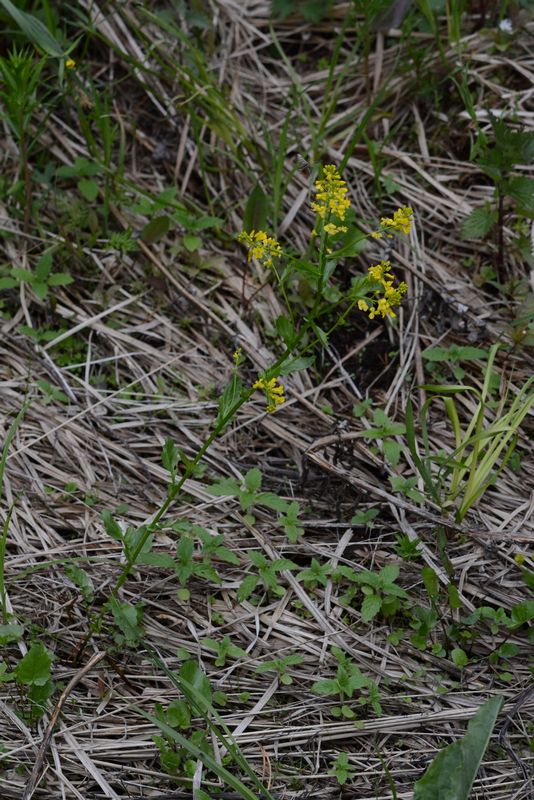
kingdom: Plantae
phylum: Tracheophyta
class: Magnoliopsida
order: Brassicales
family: Brassicaceae
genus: Barbarea
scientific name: Barbarea vulgaris
